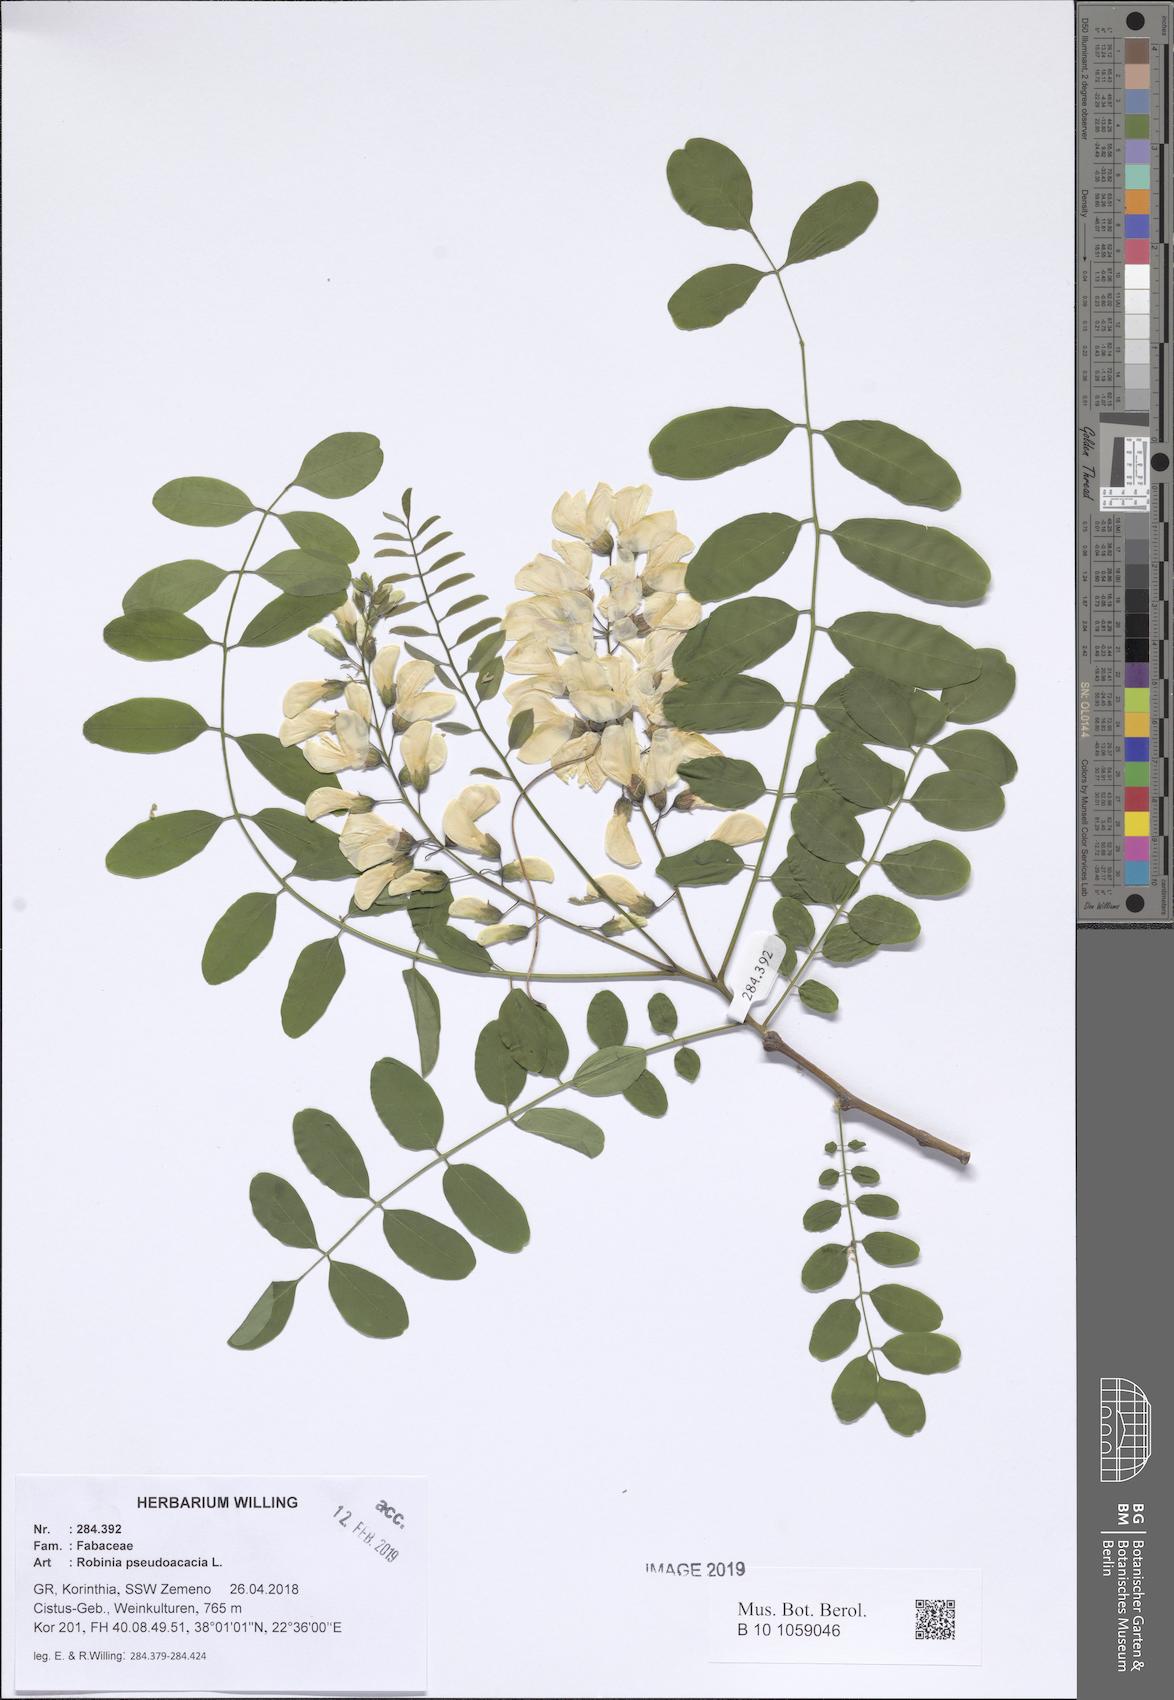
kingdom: Plantae
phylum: Tracheophyta
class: Magnoliopsida
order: Fabales
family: Fabaceae
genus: Robinia
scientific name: Robinia pseudoacacia
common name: Black locust
